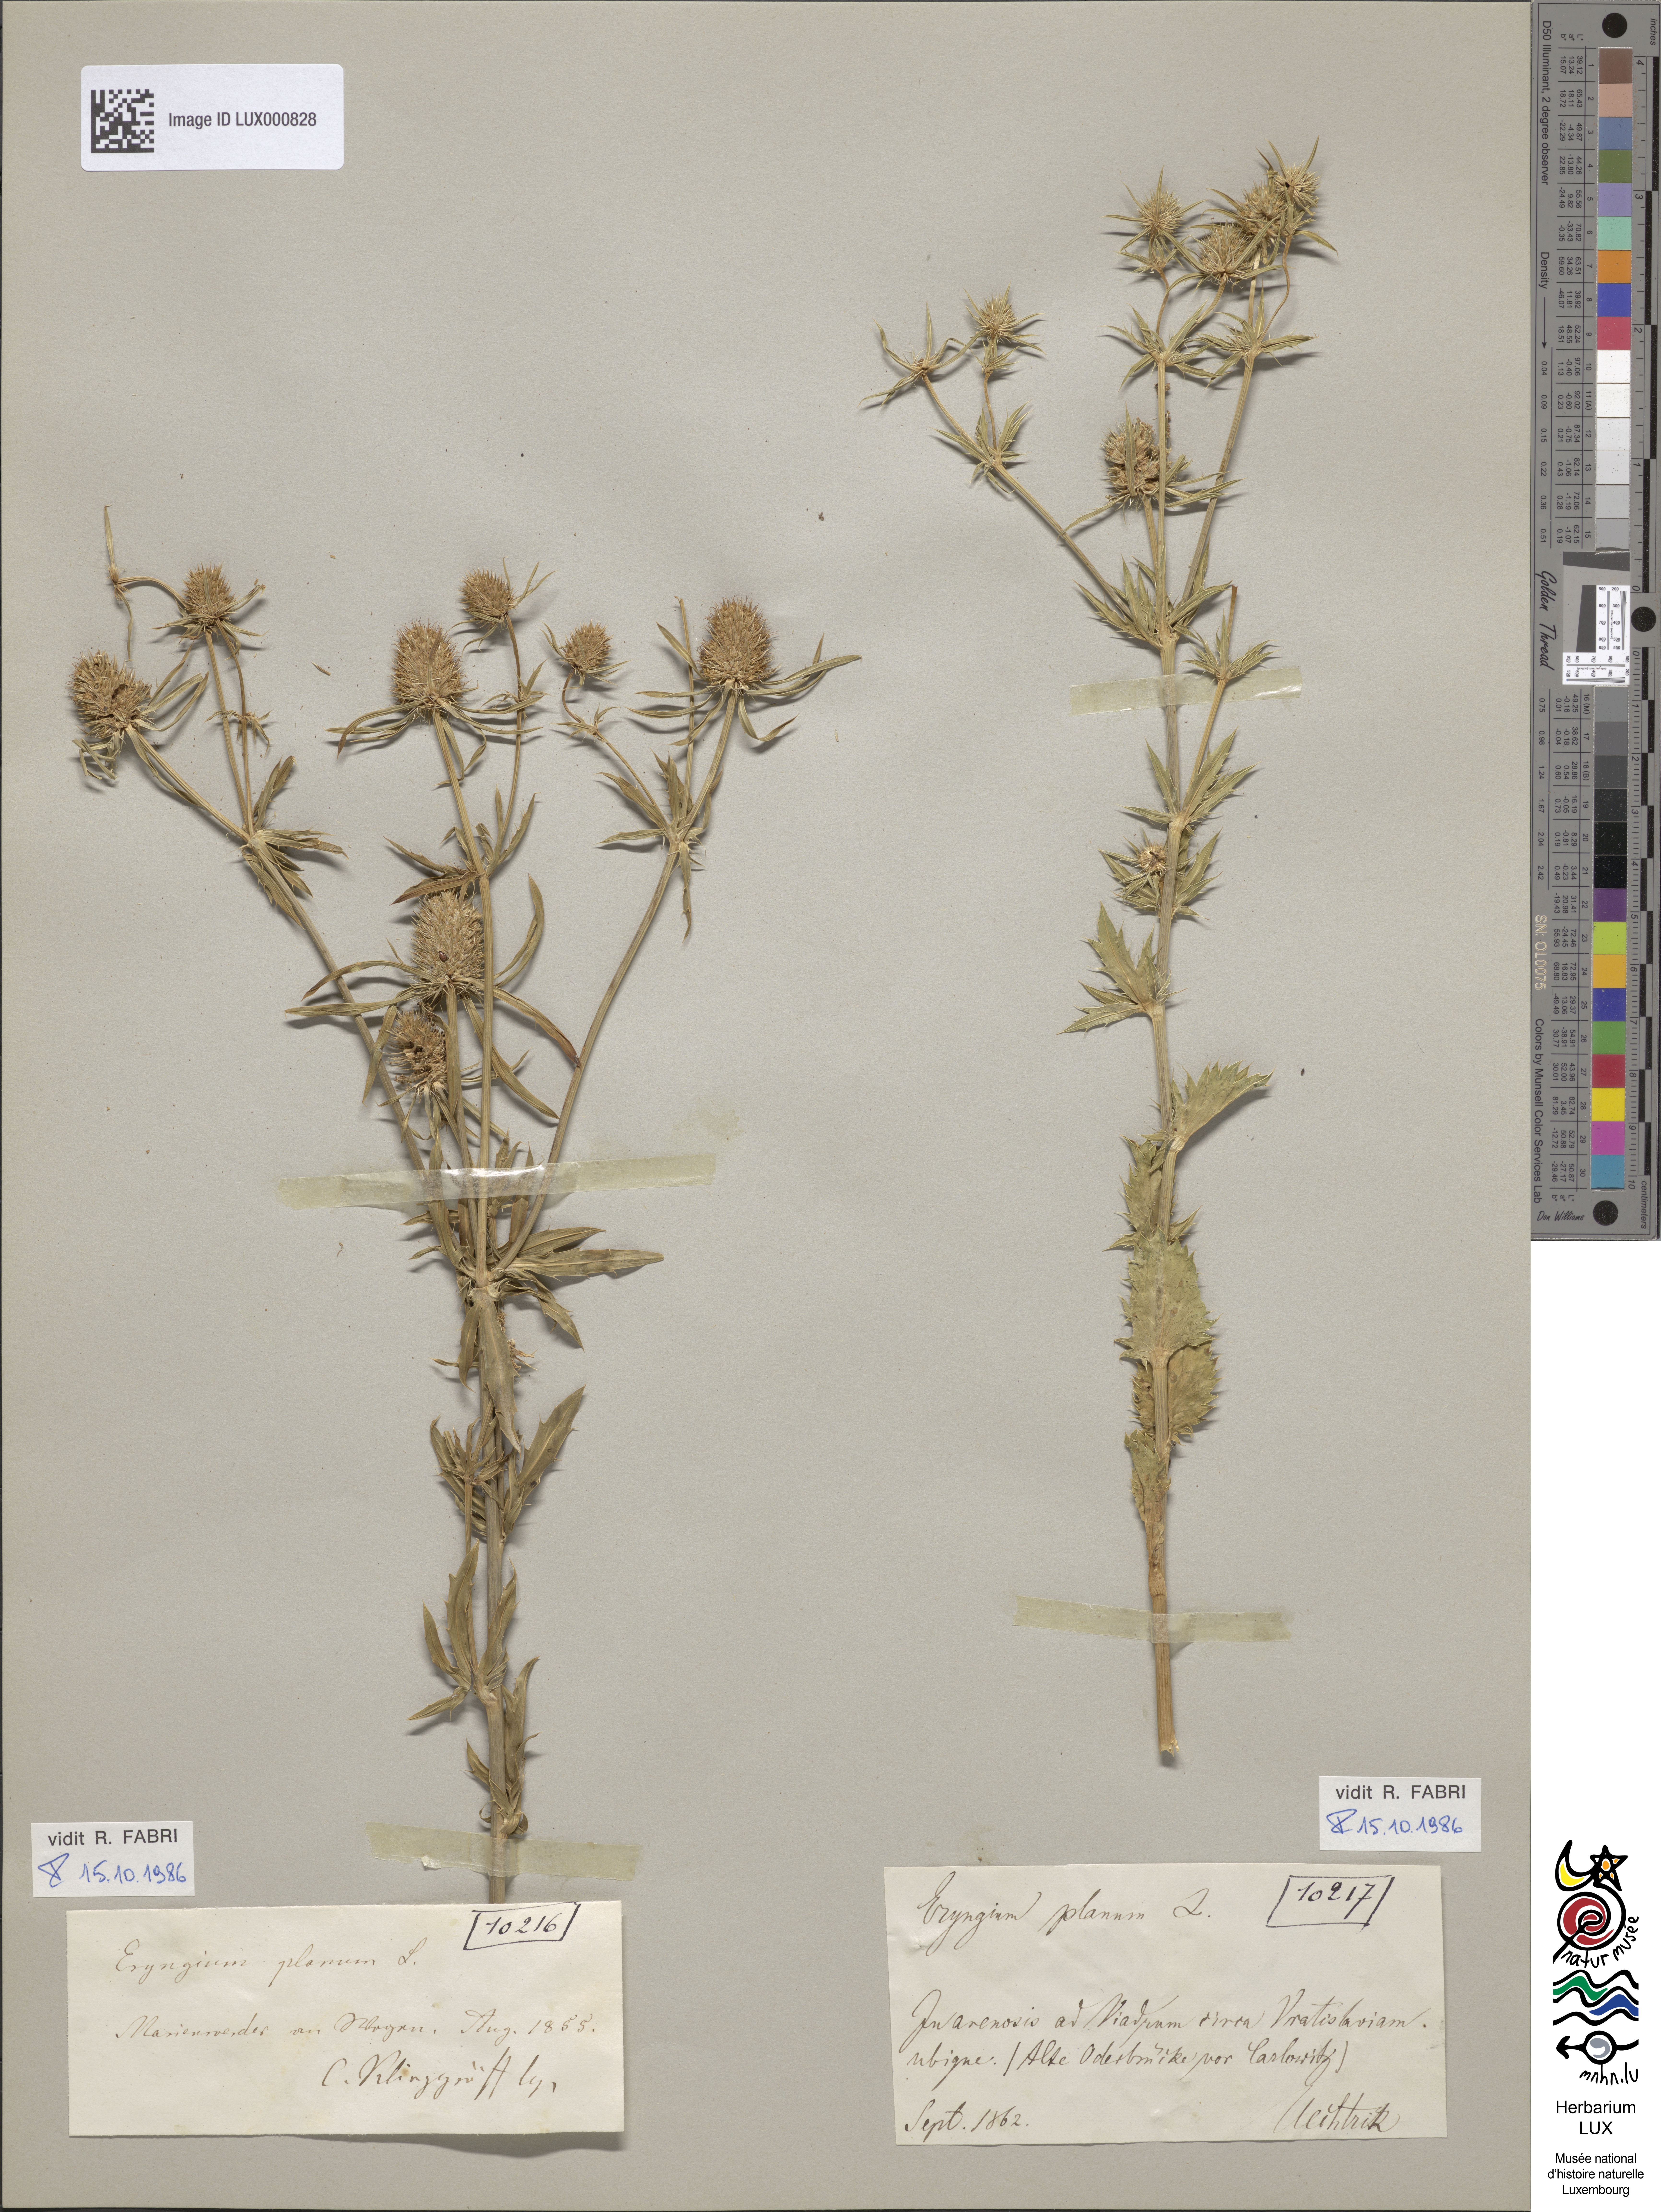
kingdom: Plantae
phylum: Tracheophyta
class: Magnoliopsida
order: Apiales
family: Apiaceae
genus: Eryngium
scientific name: Eryngium planum
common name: Blue eryngo
